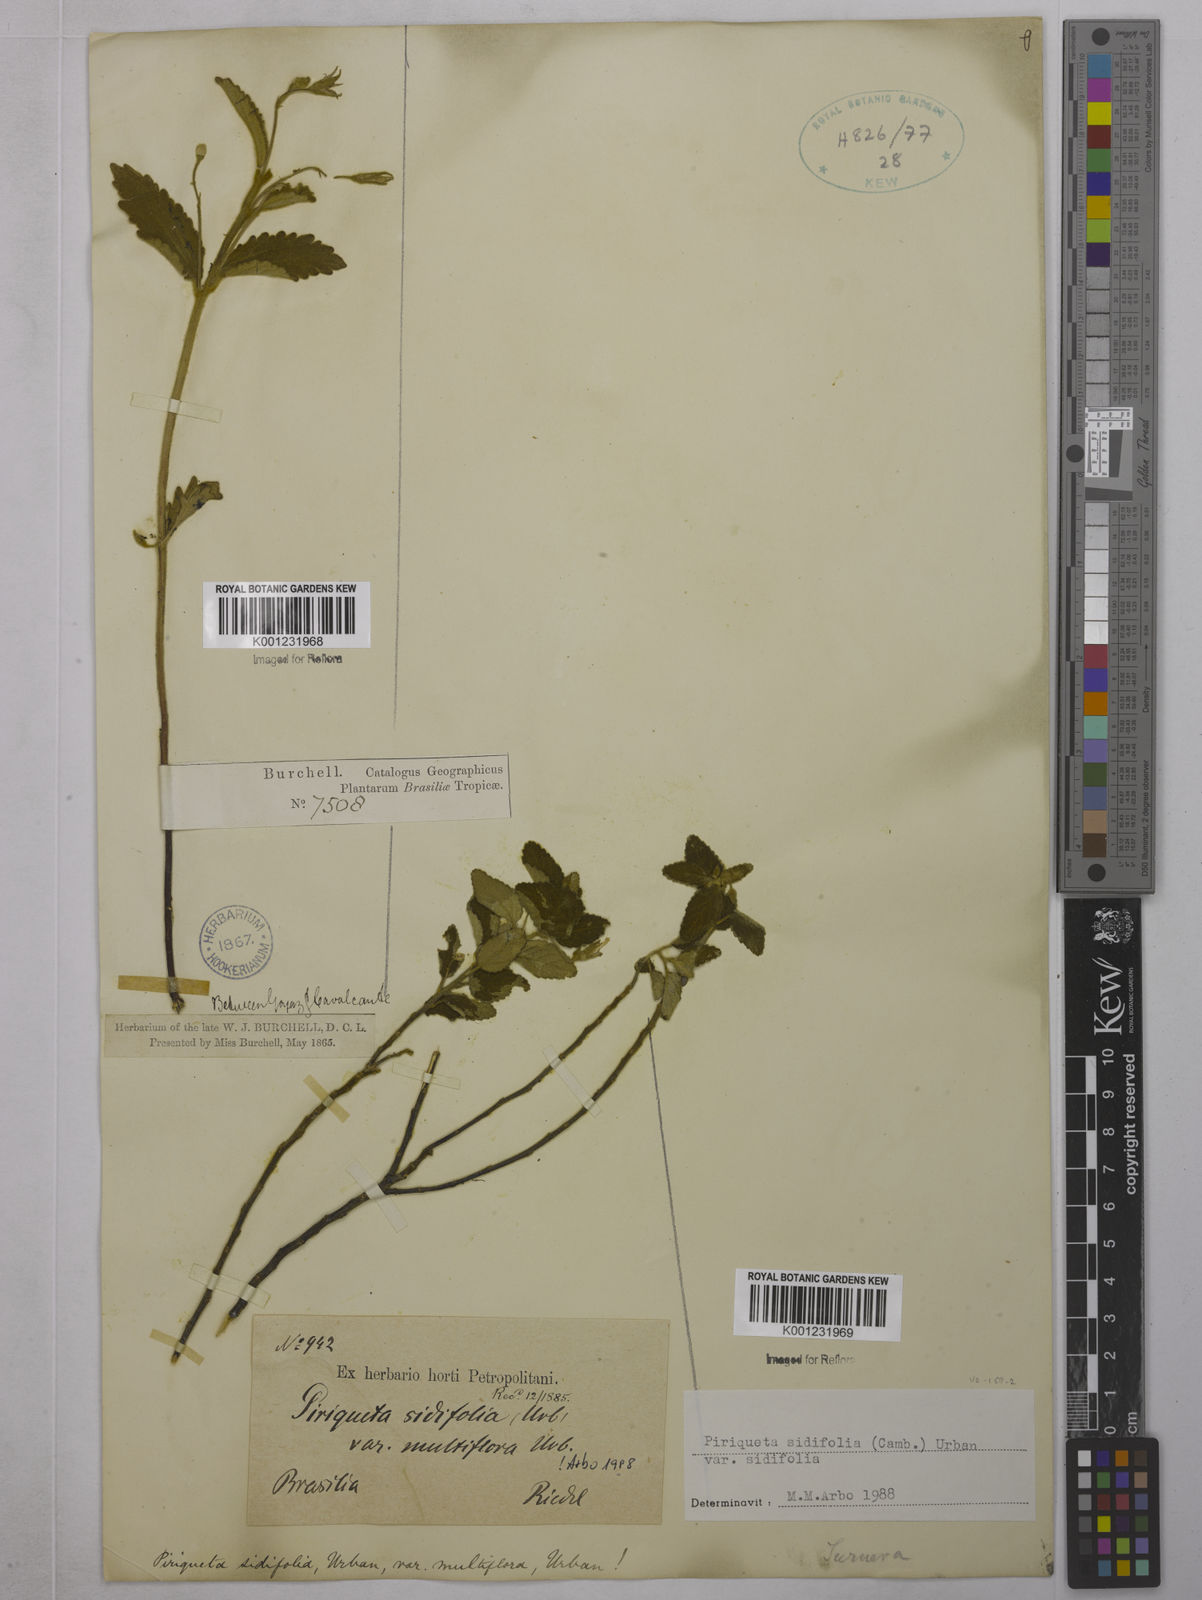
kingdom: Plantae
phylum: Tracheophyta
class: Magnoliopsida
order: Malpighiales
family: Turneraceae
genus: Piriqueta
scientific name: Piriqueta sidifolia
